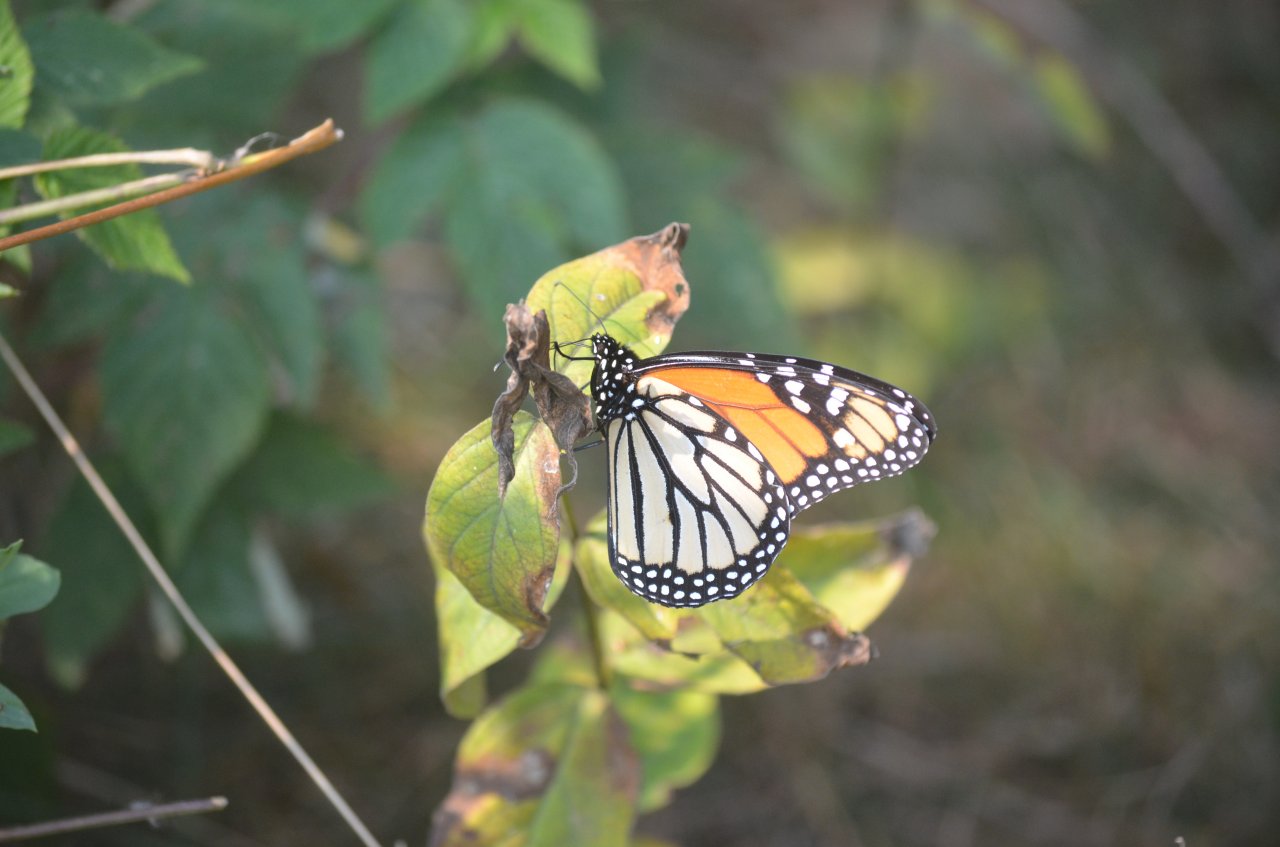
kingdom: Animalia
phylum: Arthropoda
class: Insecta
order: Lepidoptera
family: Nymphalidae
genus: Danaus
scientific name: Danaus plexippus
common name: Monarch
